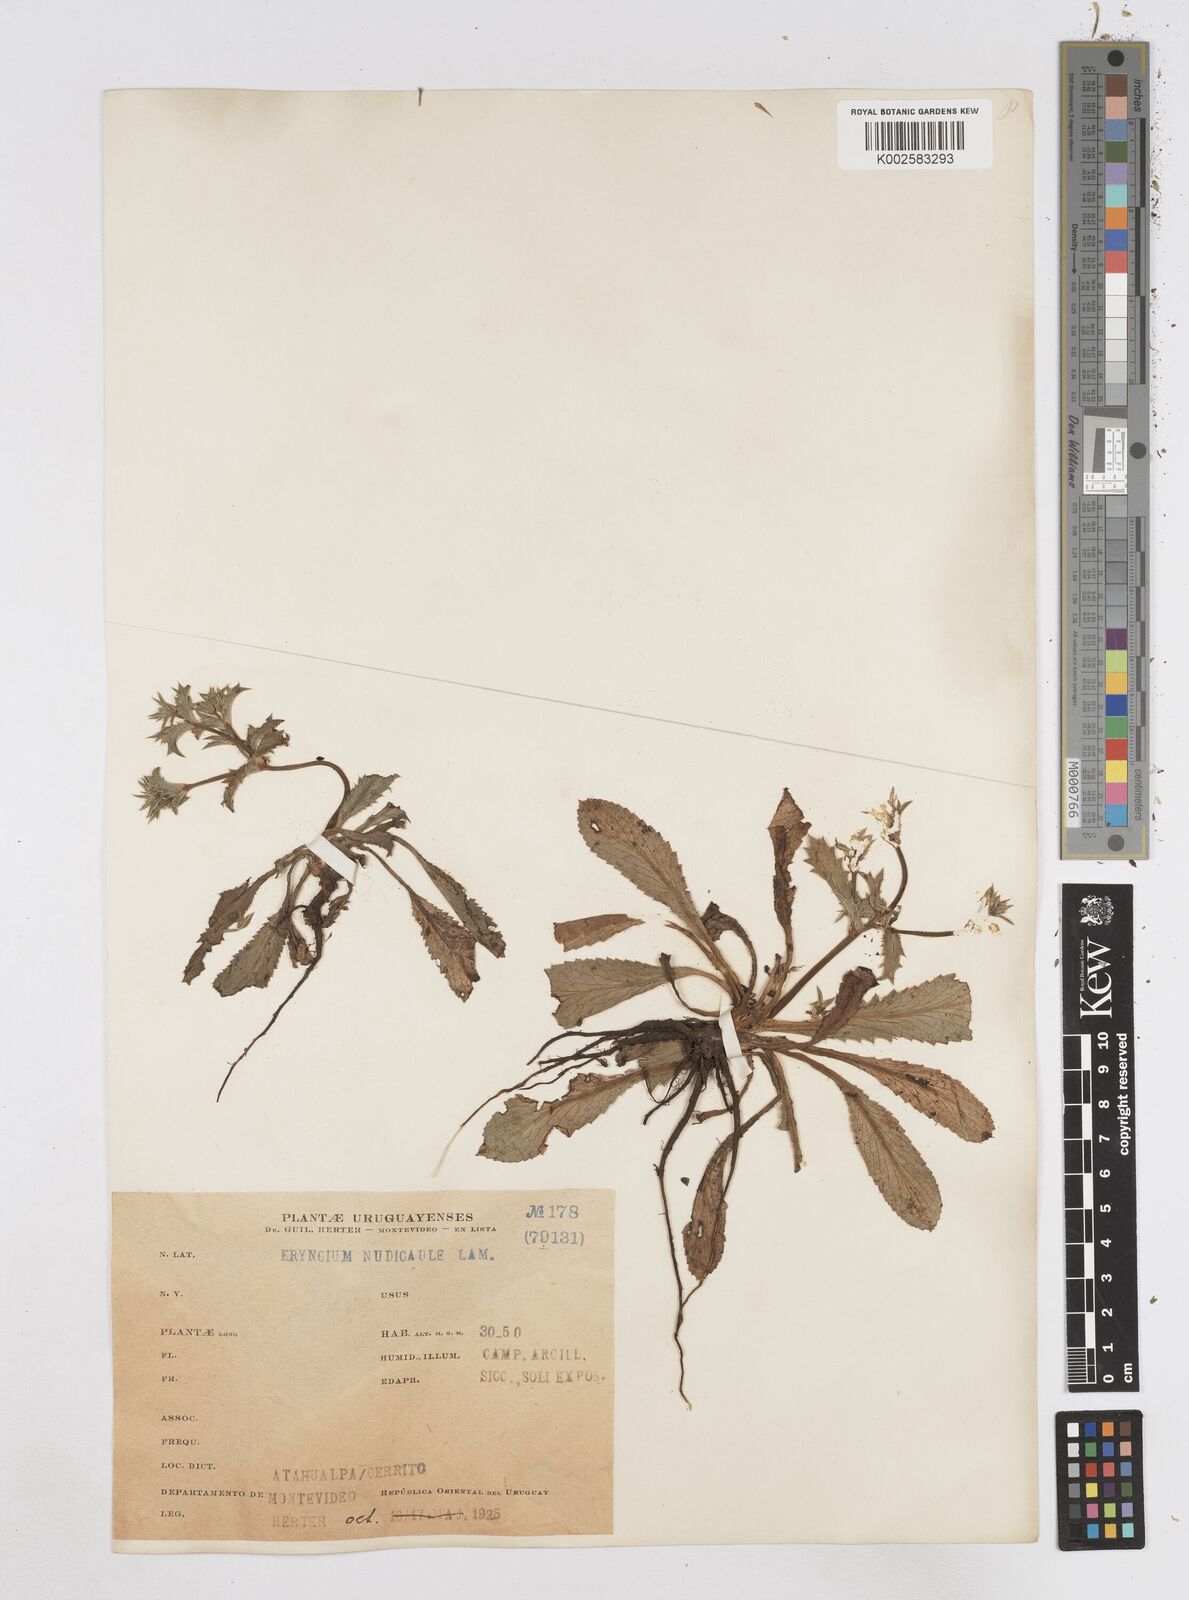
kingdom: Plantae
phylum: Tracheophyta
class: Magnoliopsida
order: Apiales
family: Apiaceae
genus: Eryngium
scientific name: Eryngium nudicaule
